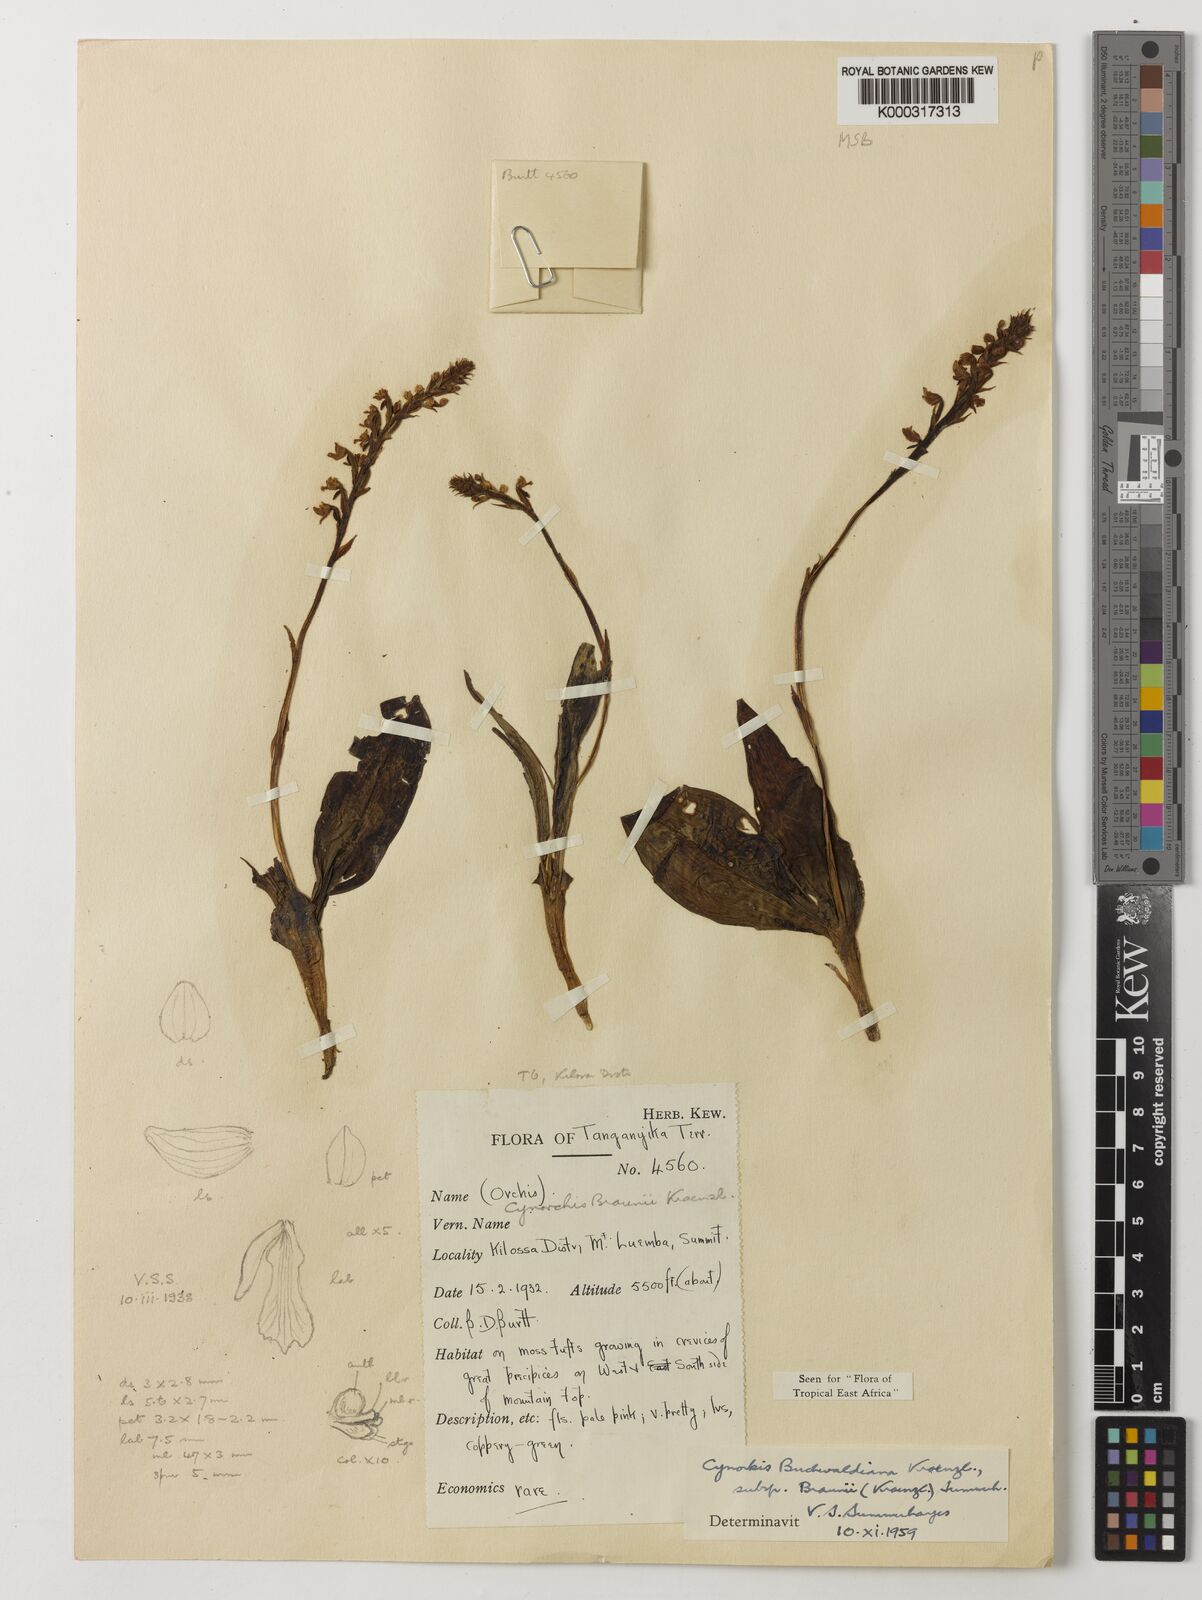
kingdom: Plantae
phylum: Tracheophyta
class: Liliopsida
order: Asparagales
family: Orchidaceae
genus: Cynorkis
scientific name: Cynorkis buchwaldiana
